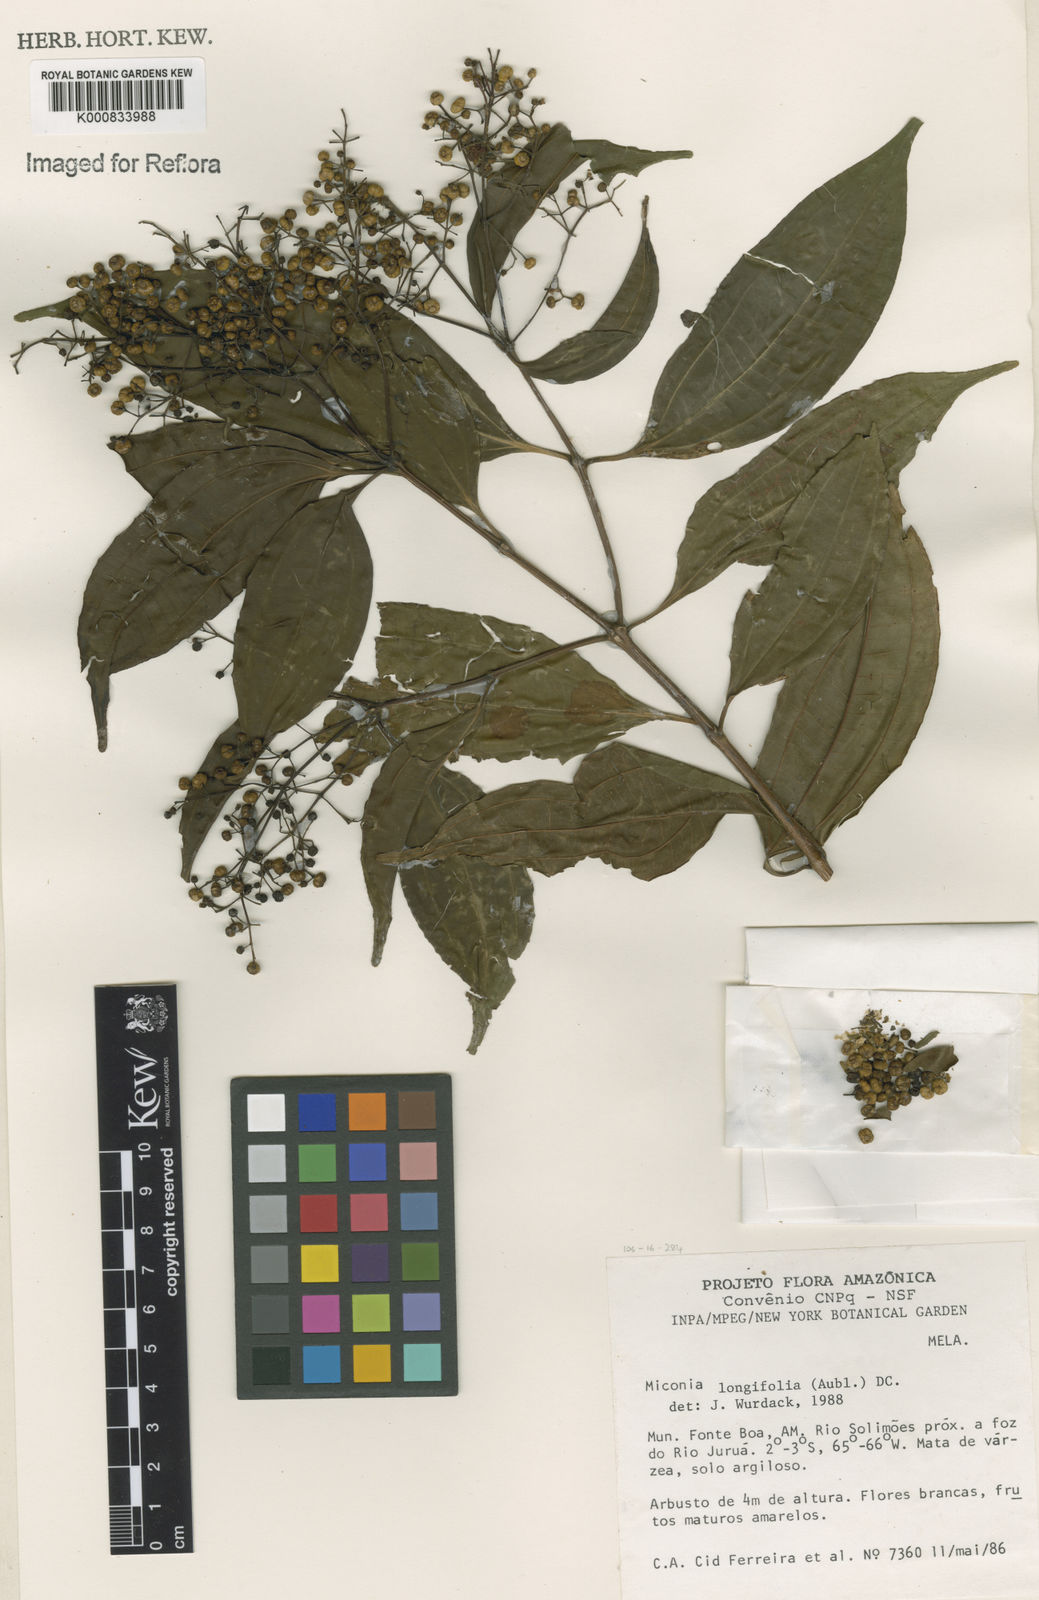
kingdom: Plantae
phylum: Tracheophyta
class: Magnoliopsida
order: Myrtales
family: Melastomataceae
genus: Miconia
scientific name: Miconia longifolia
